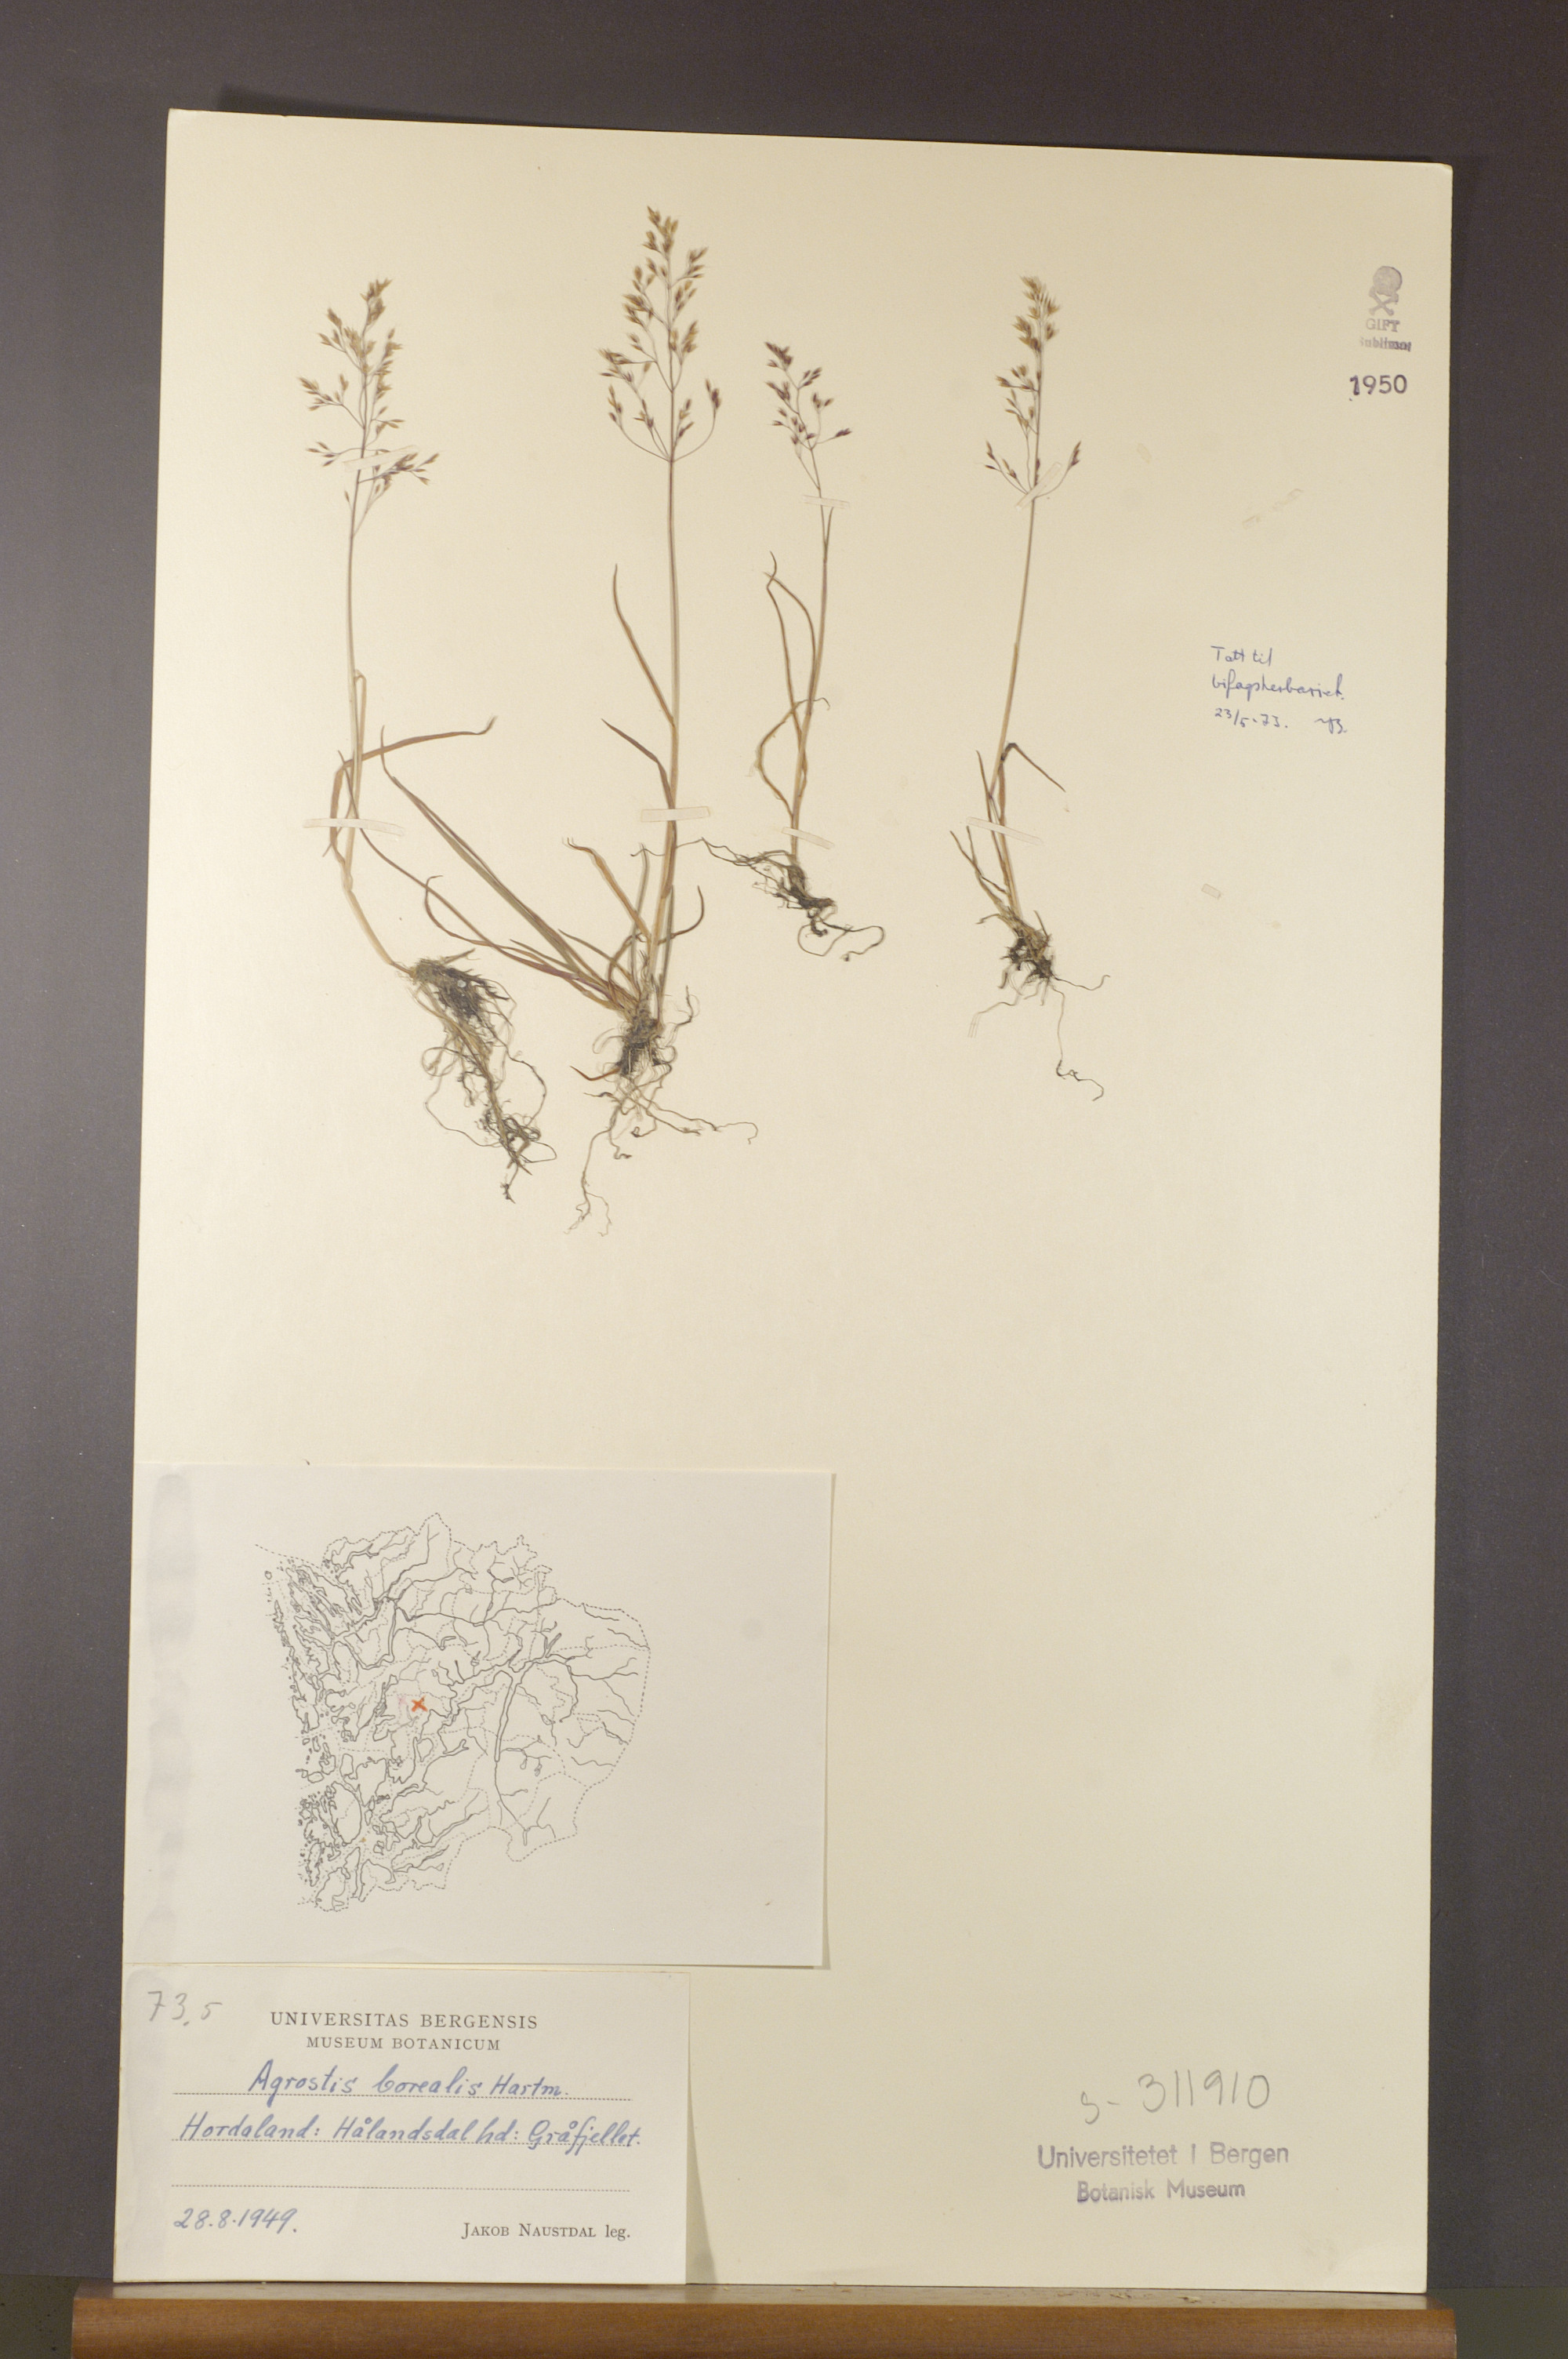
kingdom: Plantae
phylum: Tracheophyta
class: Liliopsida
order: Poales
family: Poaceae
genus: Agrostis
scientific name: Agrostis mertensii
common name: Northern bent
